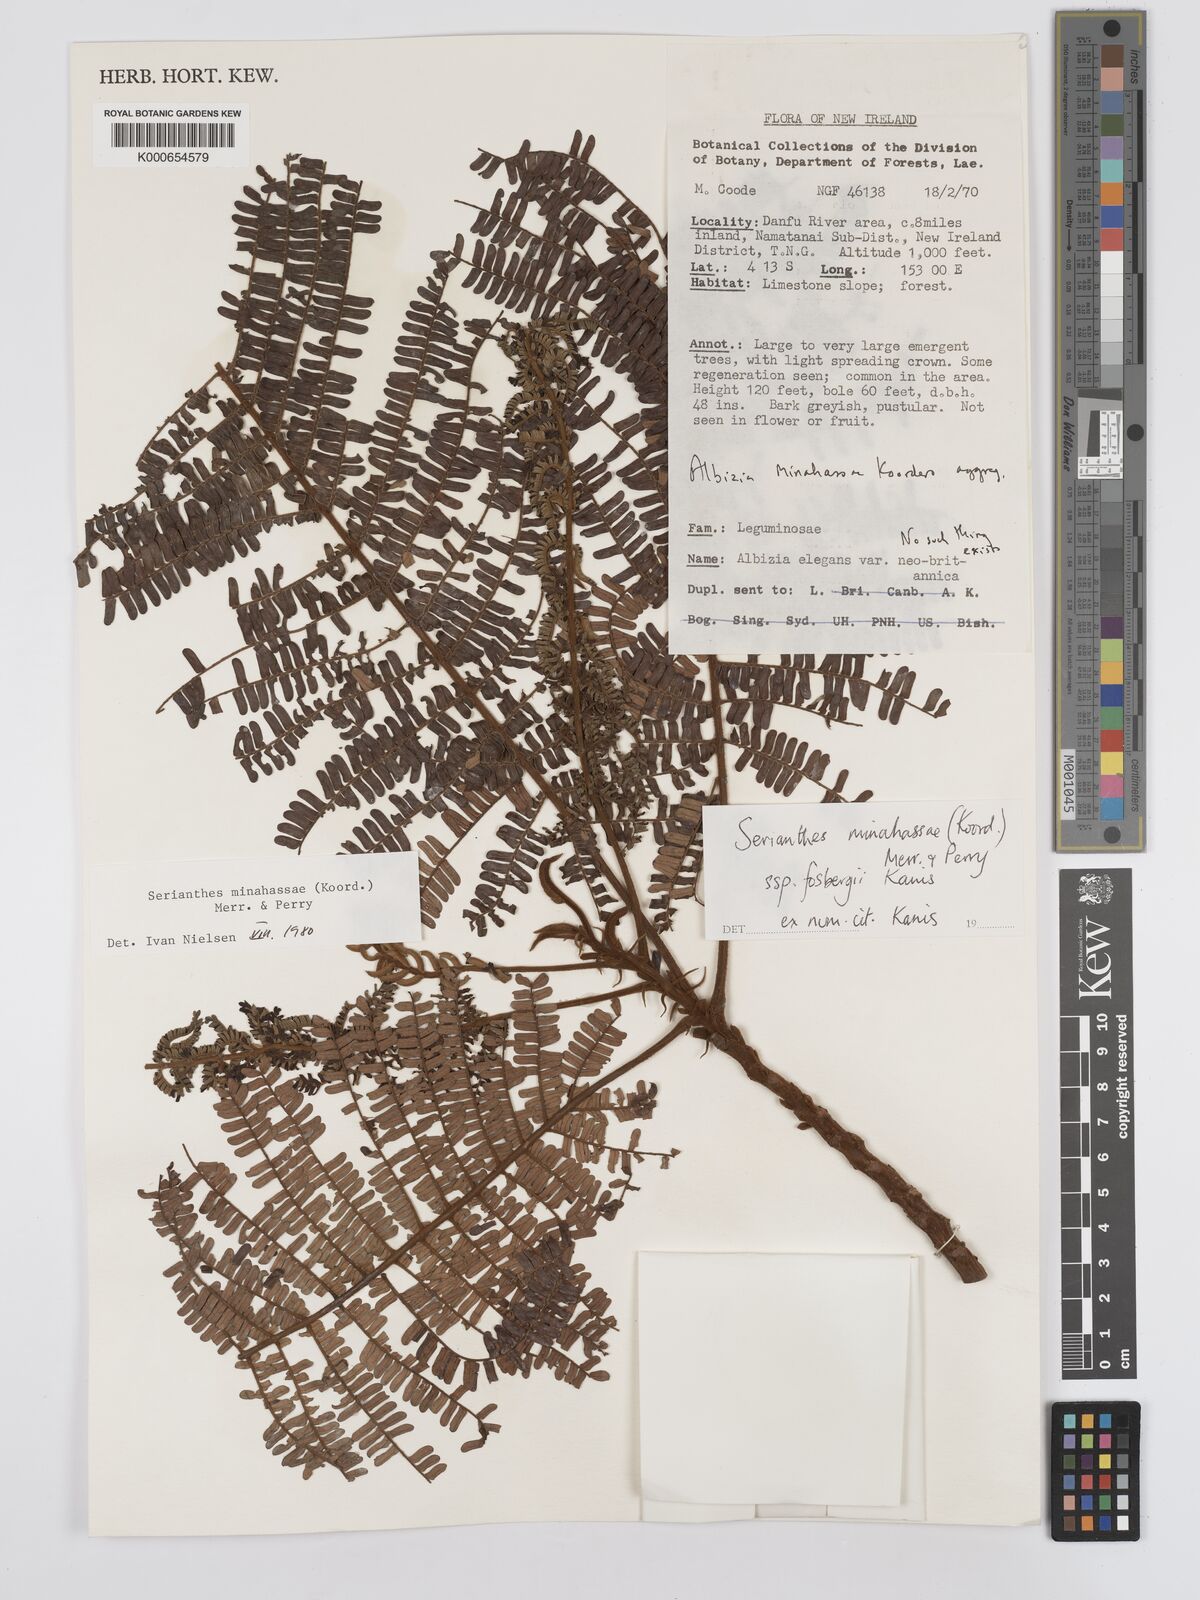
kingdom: Plantae
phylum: Tracheophyta
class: Magnoliopsida
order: Fabales
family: Fabaceae
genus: Serianthes
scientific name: Serianthes minahassae
